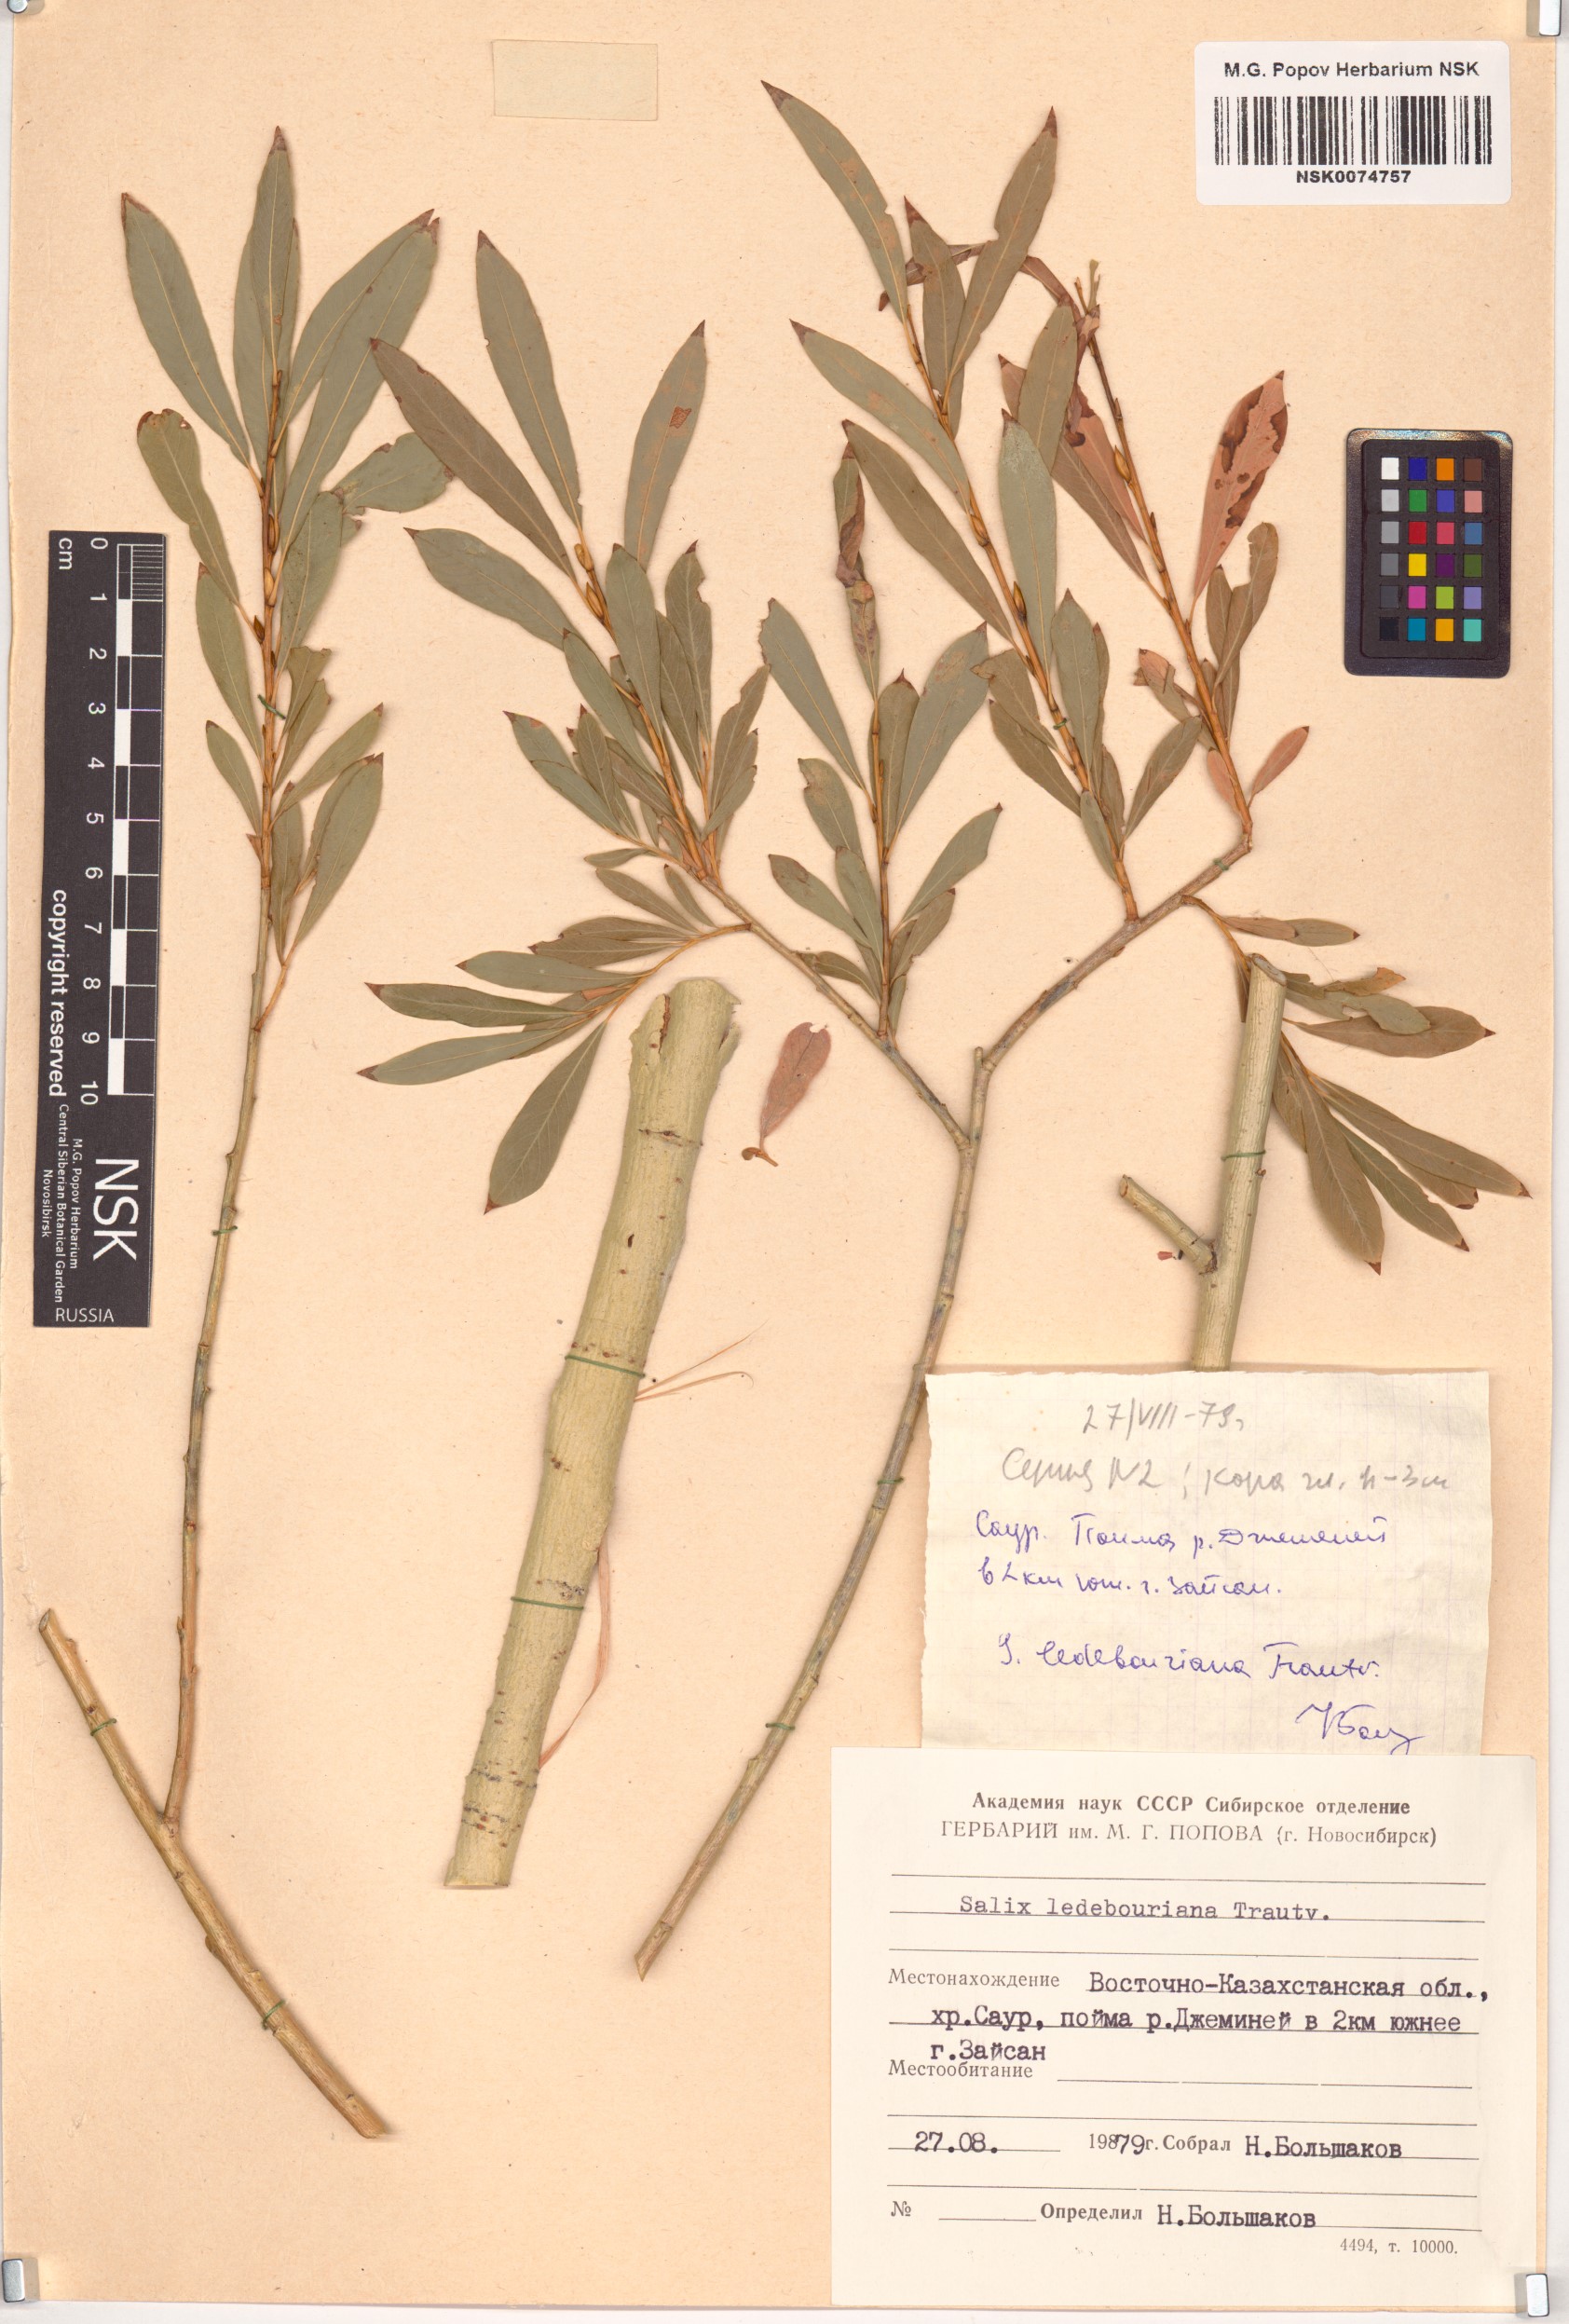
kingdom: Plantae
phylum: Tracheophyta
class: Magnoliopsida
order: Malpighiales
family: Salicaceae
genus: Salix
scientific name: Salix ledebouriana
